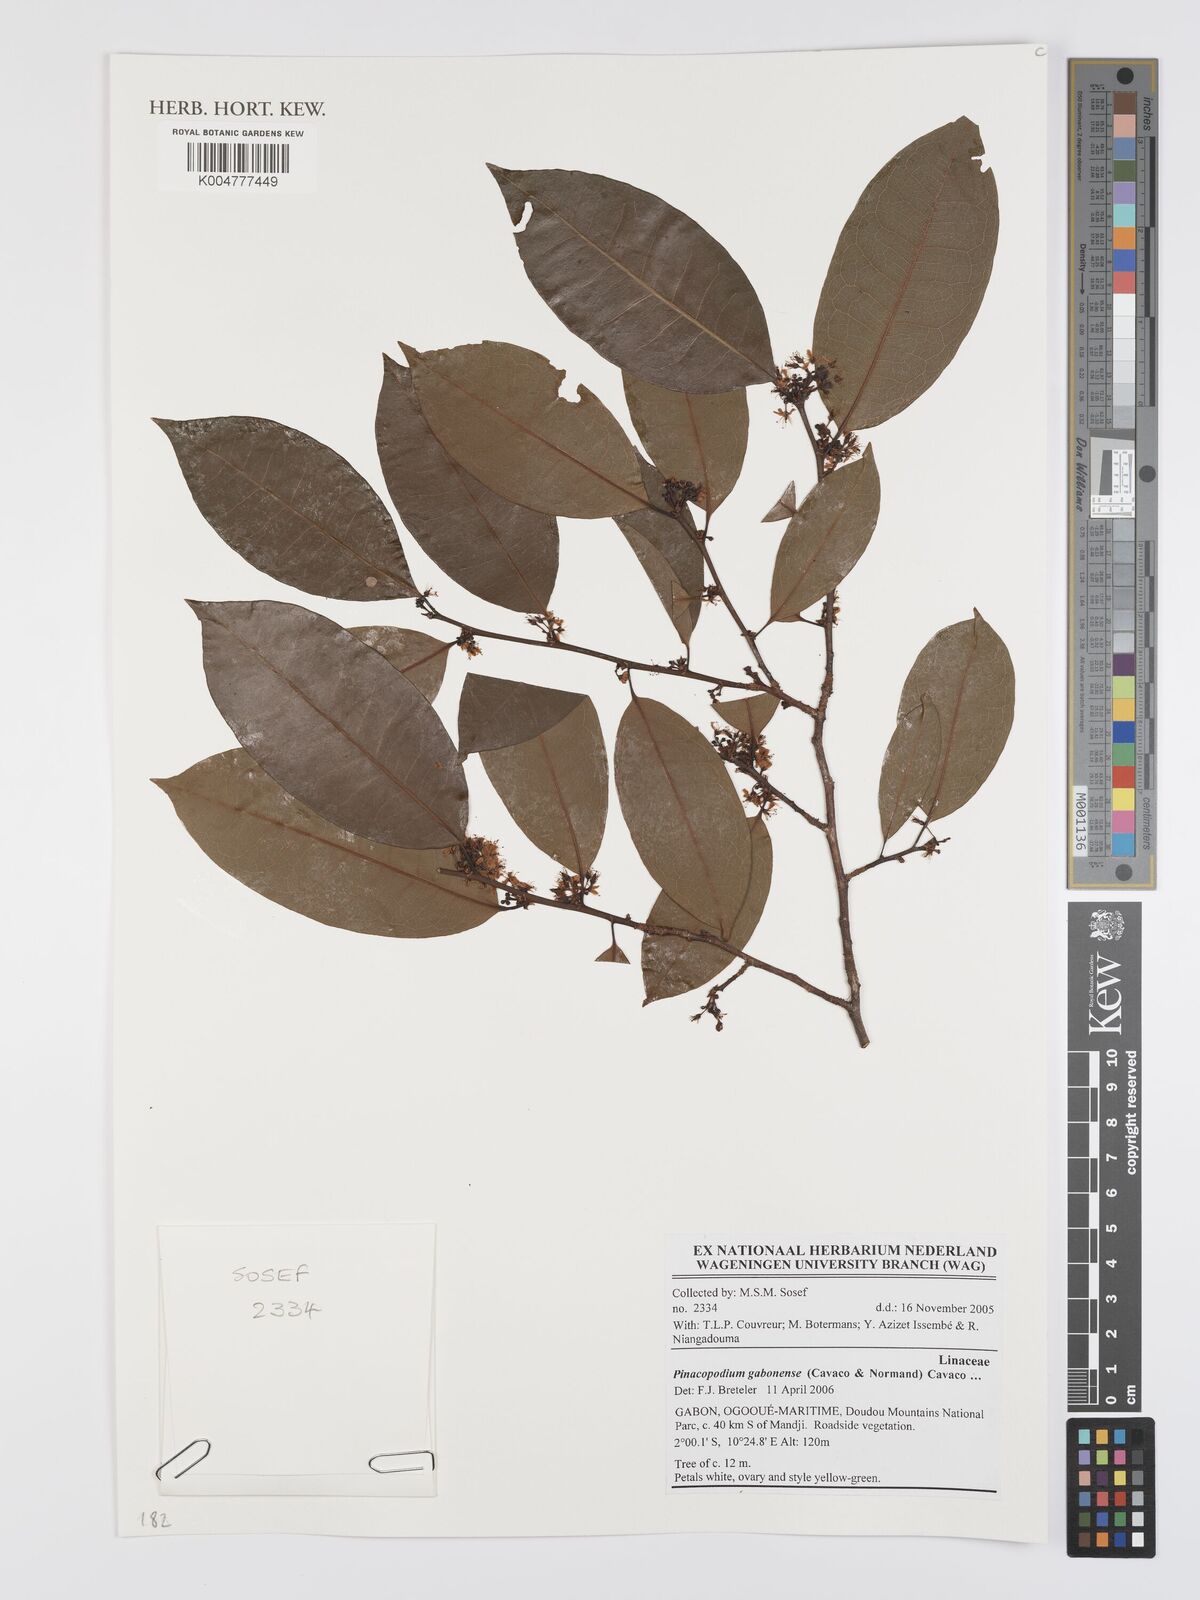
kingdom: Plantae
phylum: Tracheophyta
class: Magnoliopsida
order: Malpighiales
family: Erythroxylaceae
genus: Pinacopodium
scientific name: Pinacopodium gabonense
